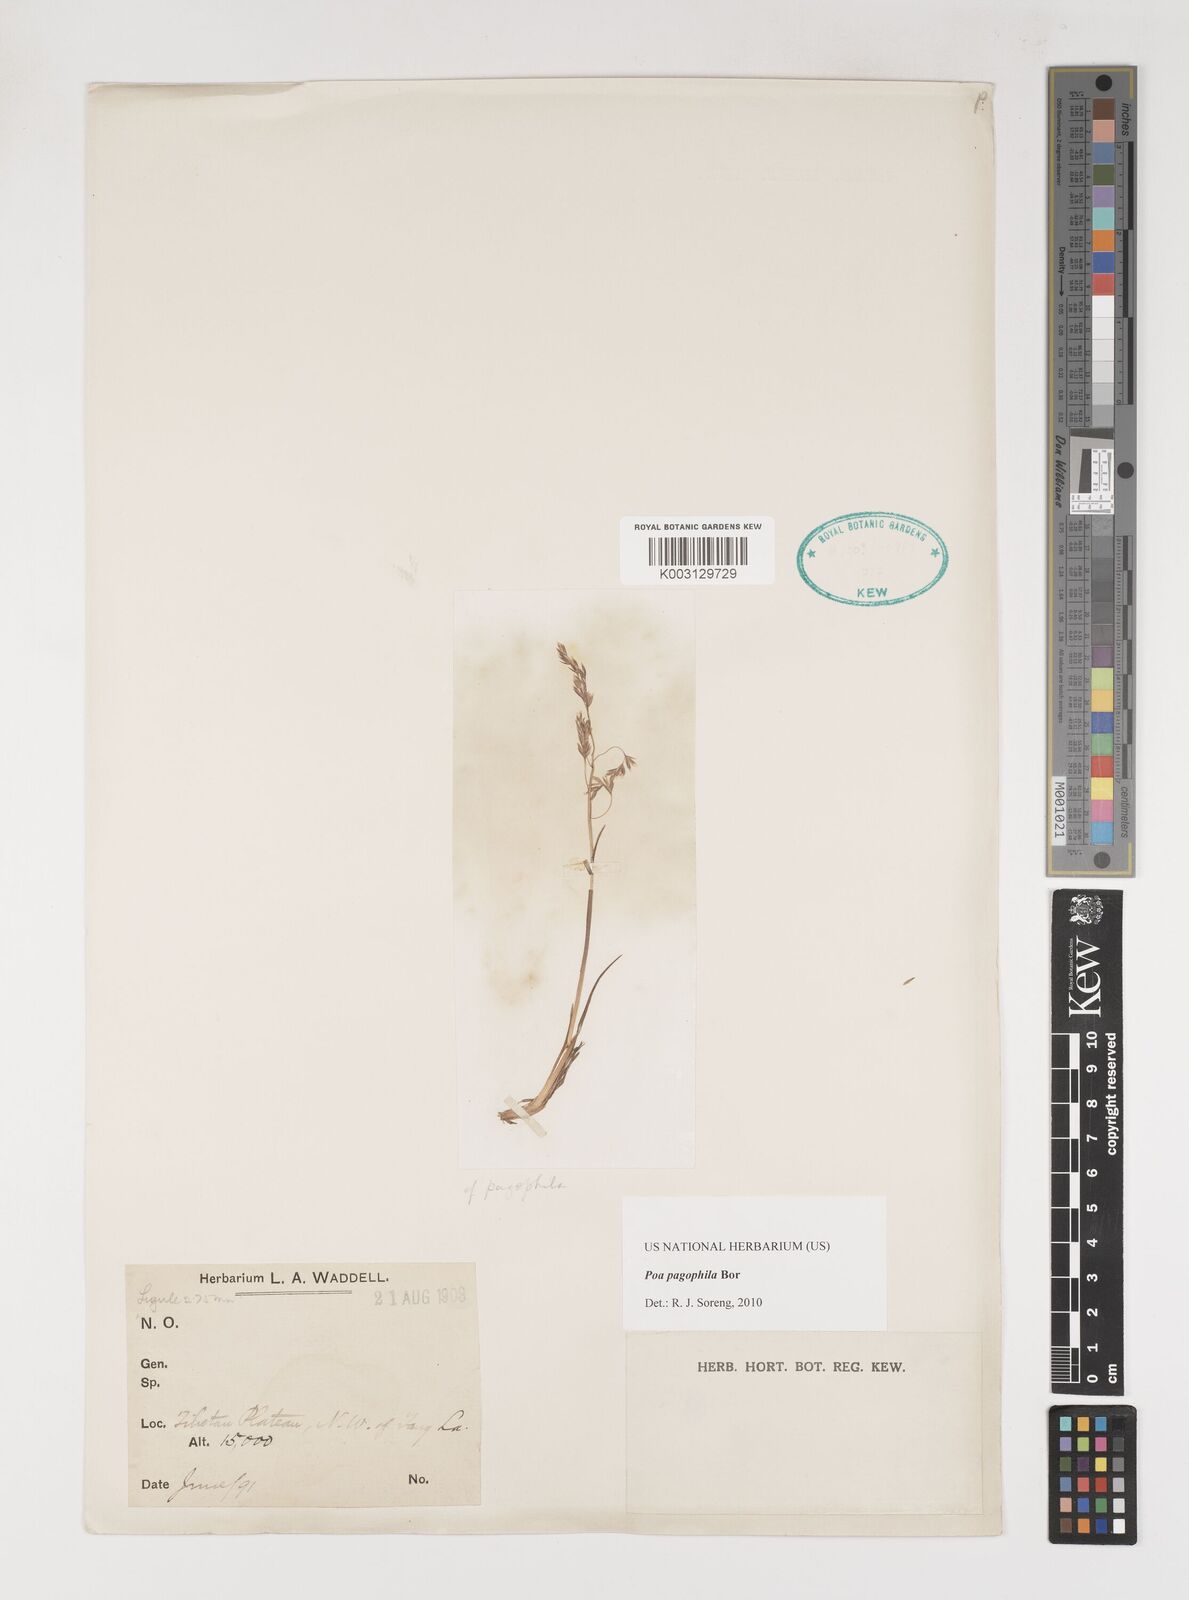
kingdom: Plantae
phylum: Tracheophyta
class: Liliopsida
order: Poales
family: Poaceae
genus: Poa
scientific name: Poa pagophila
